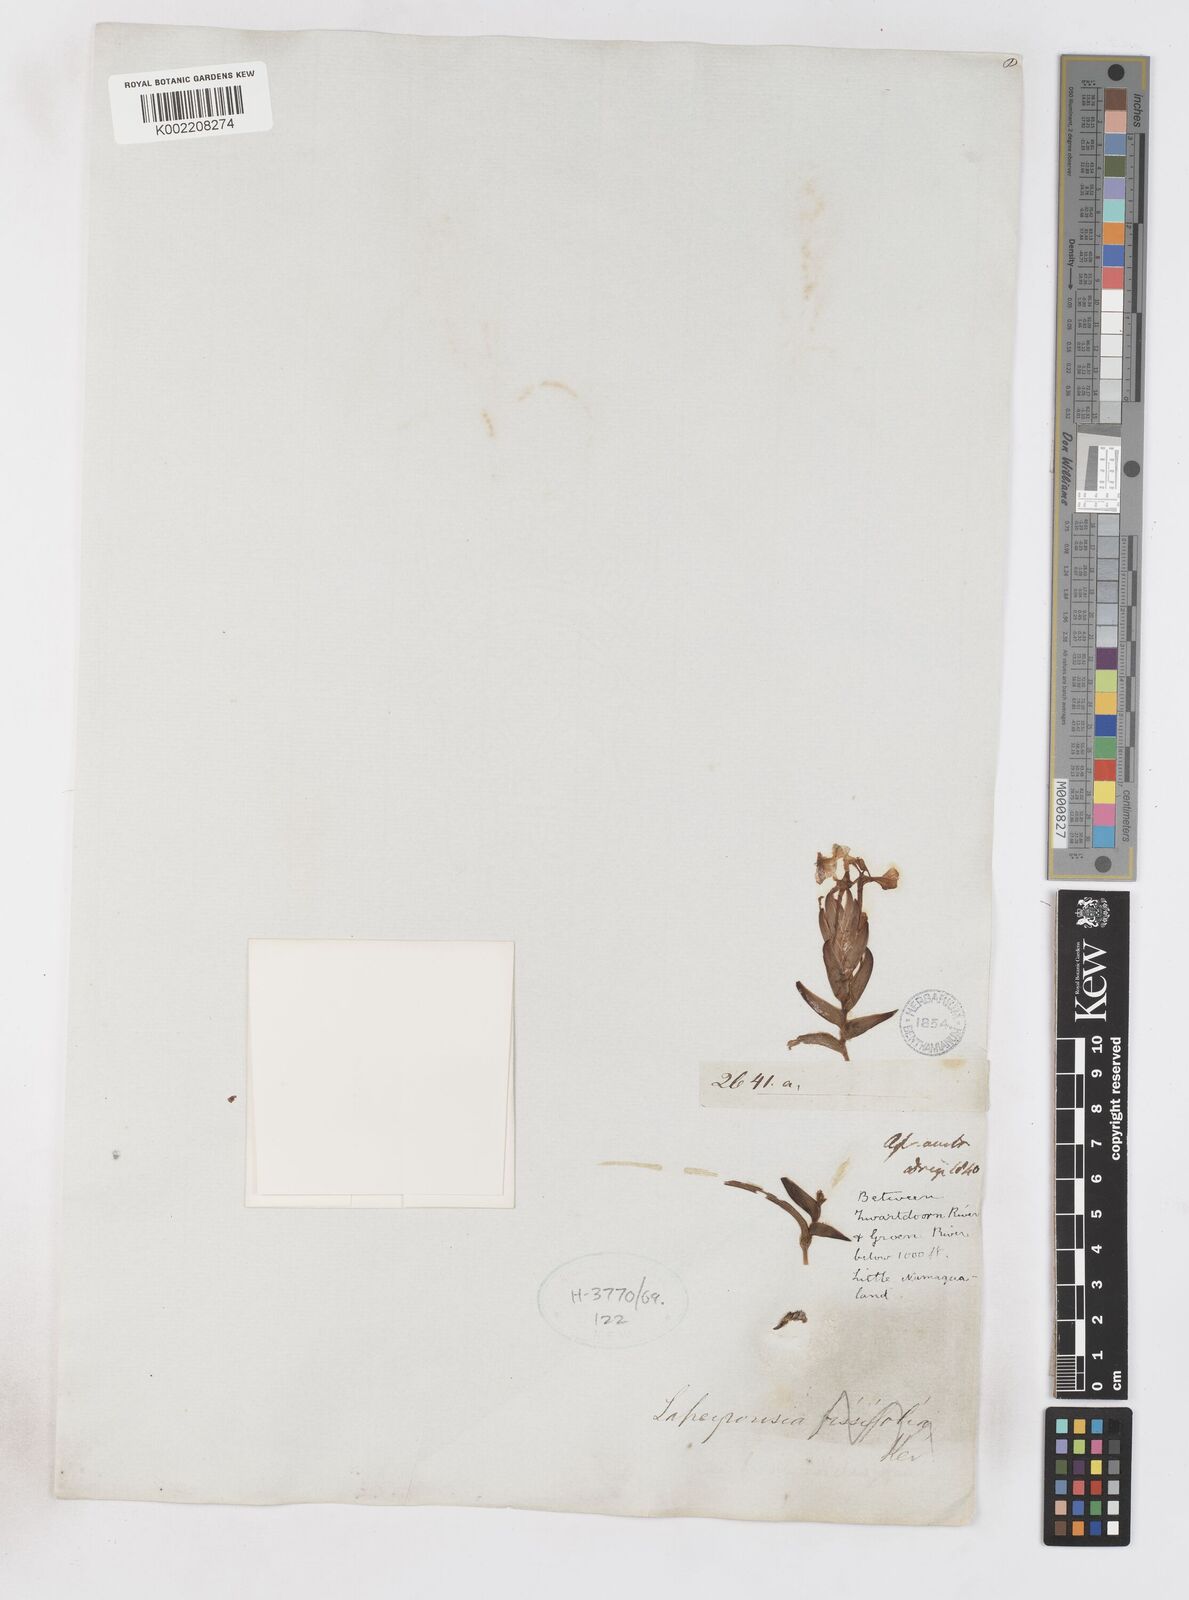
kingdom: Plantae
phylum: Tracheophyta
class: Liliopsida
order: Asparagales
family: Iridaceae
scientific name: Iridaceae
